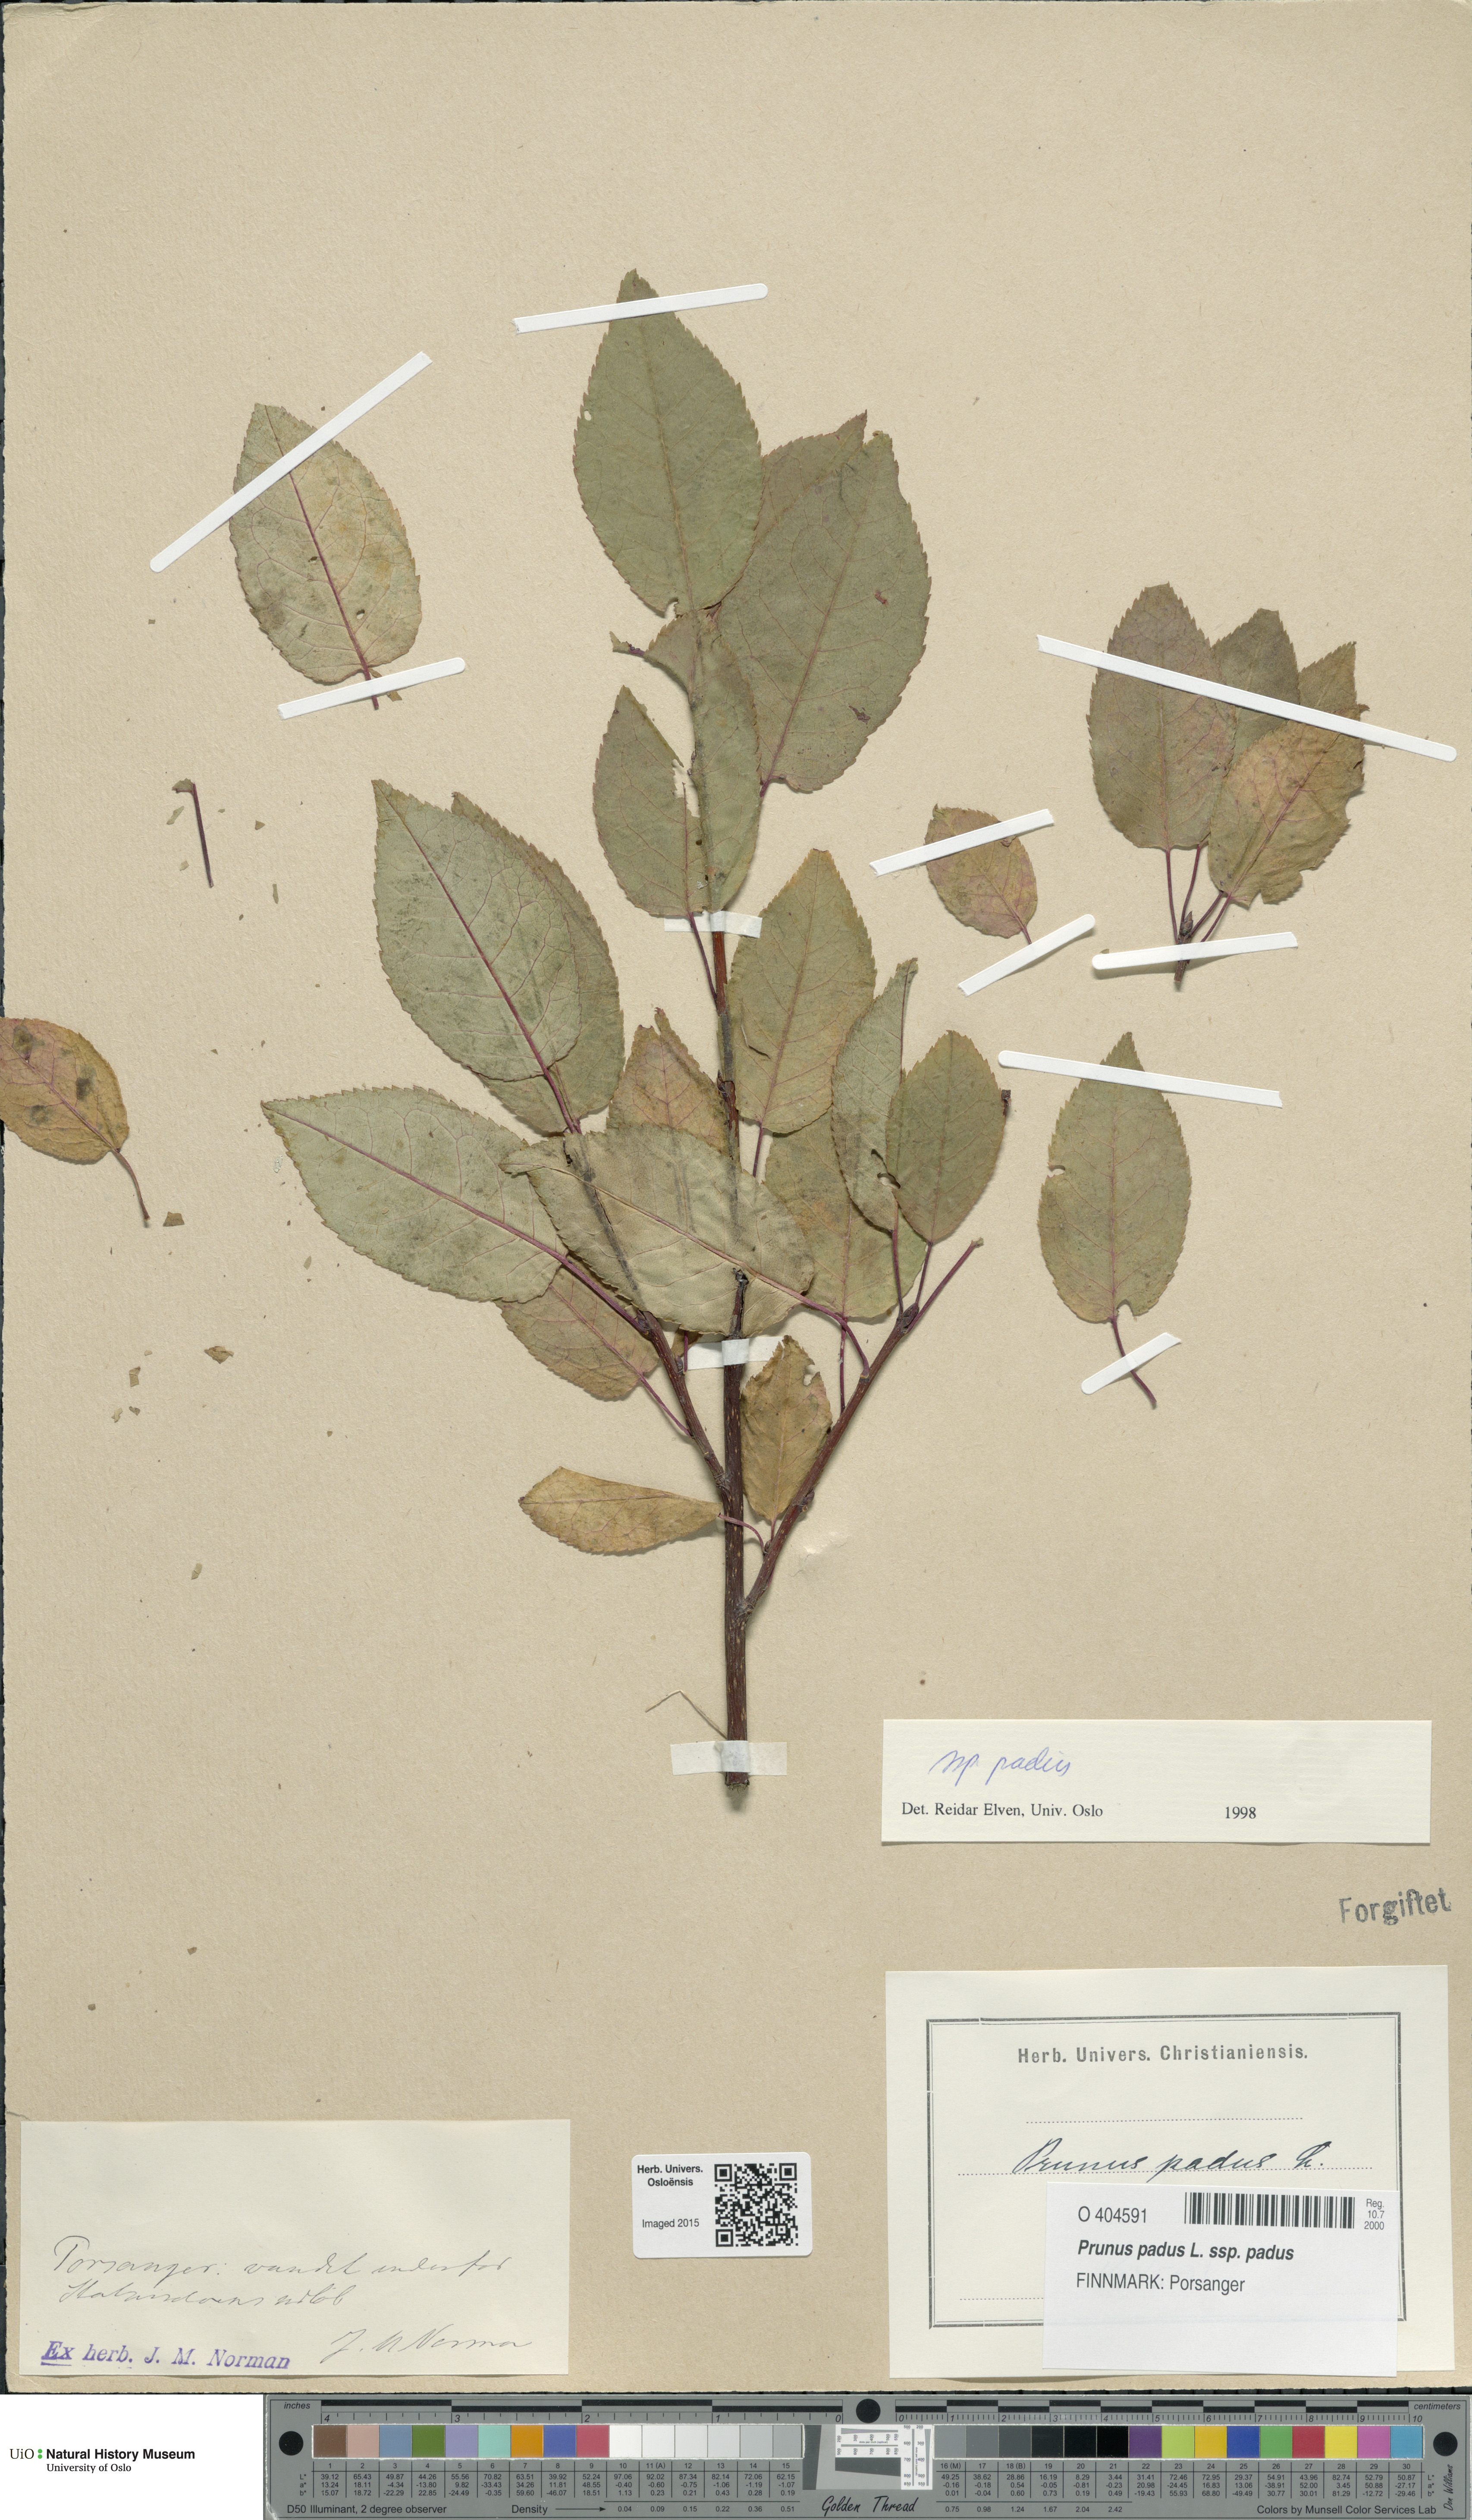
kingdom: Plantae
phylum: Tracheophyta
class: Magnoliopsida
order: Rosales
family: Rosaceae
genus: Prunus
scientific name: Prunus padus
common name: Bird cherry
